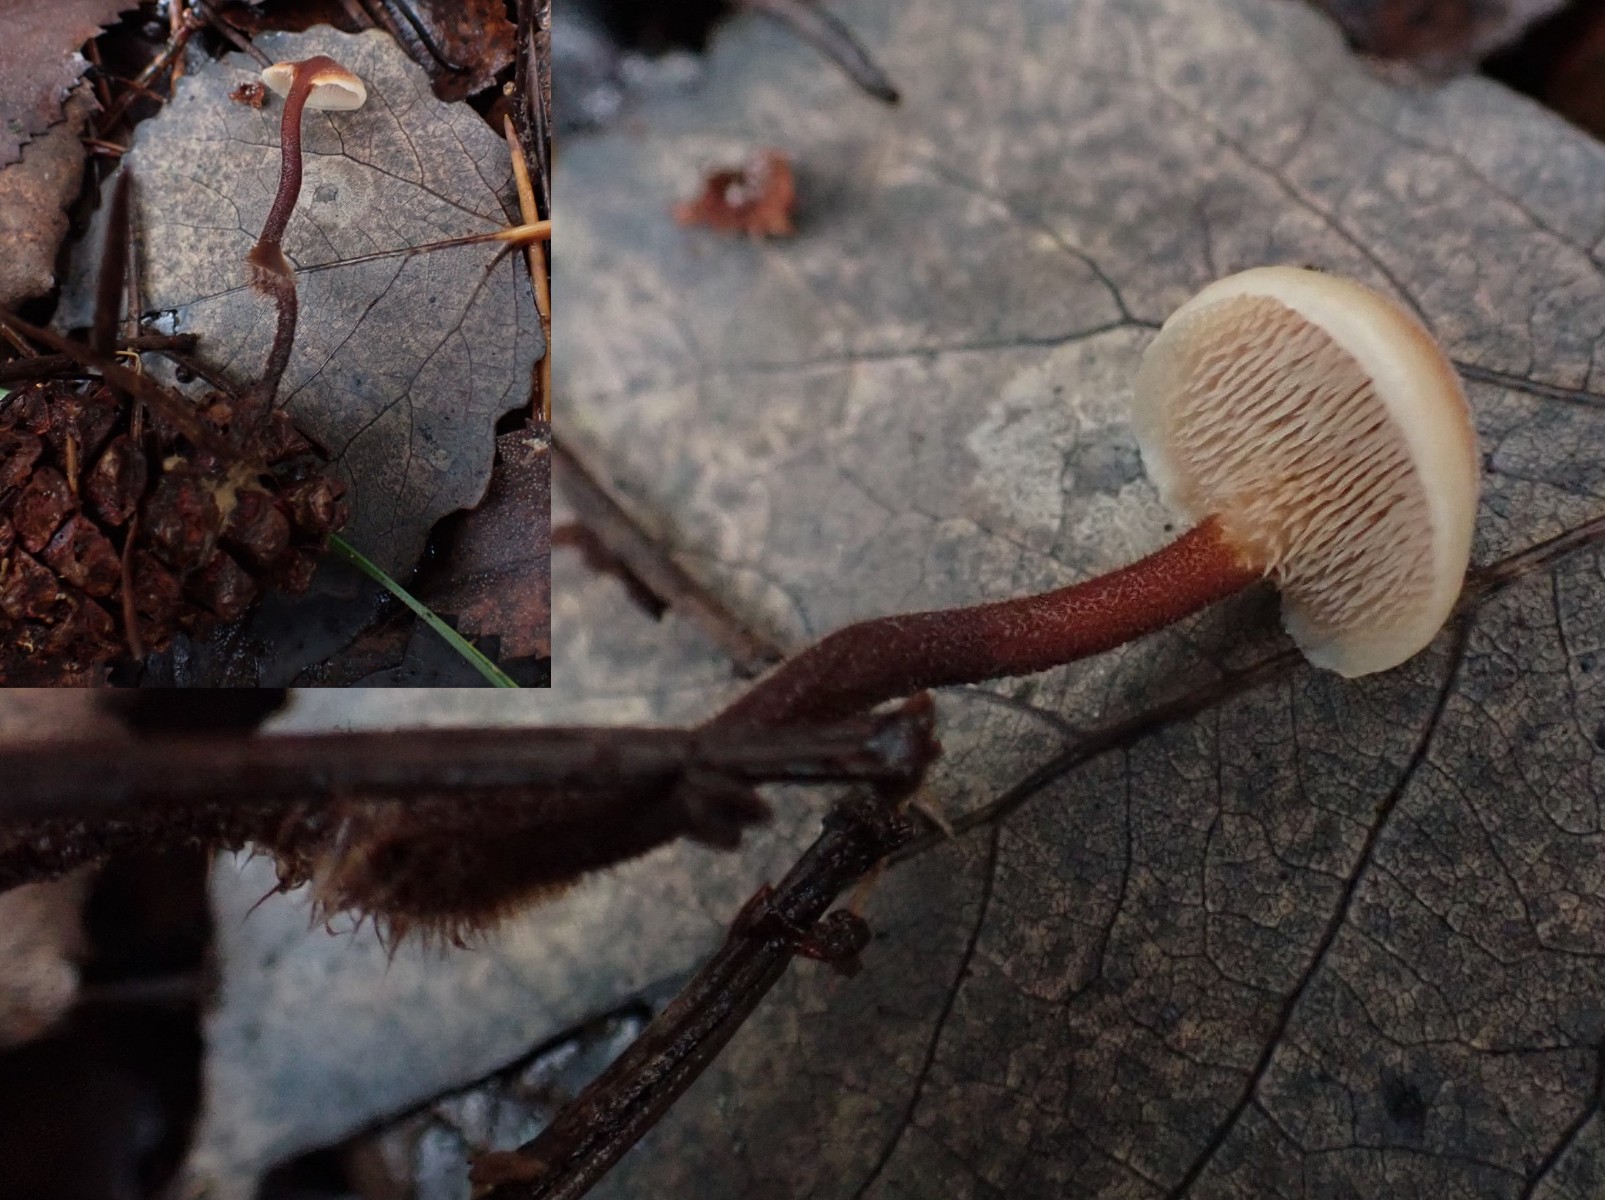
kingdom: Fungi
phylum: Basidiomycota
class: Agaricomycetes
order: Russulales
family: Auriscalpiaceae
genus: Auriscalpium
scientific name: Auriscalpium vulgare
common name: koglepigsvamp
